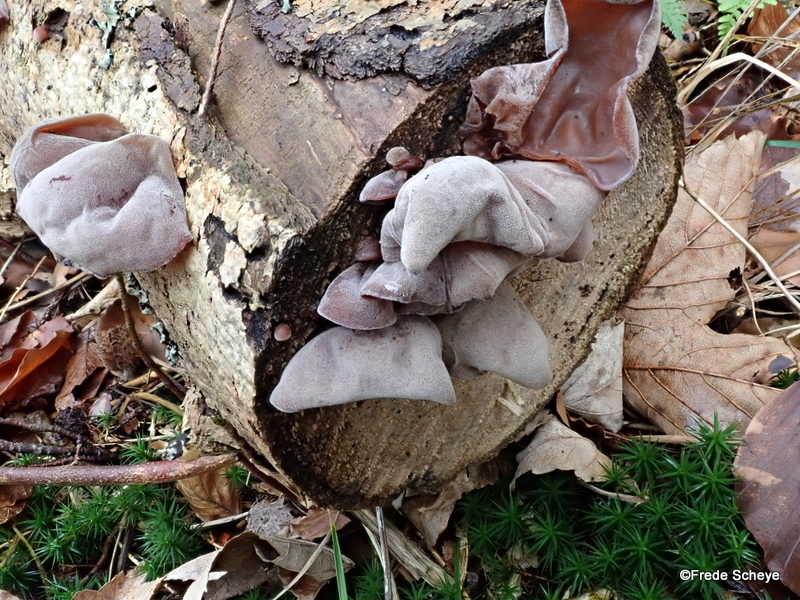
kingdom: Fungi
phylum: Basidiomycota
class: Agaricomycetes
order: Auriculariales
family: Auriculariaceae
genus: Auricularia
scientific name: Auricularia auricula-judae
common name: almindelig judasøre
